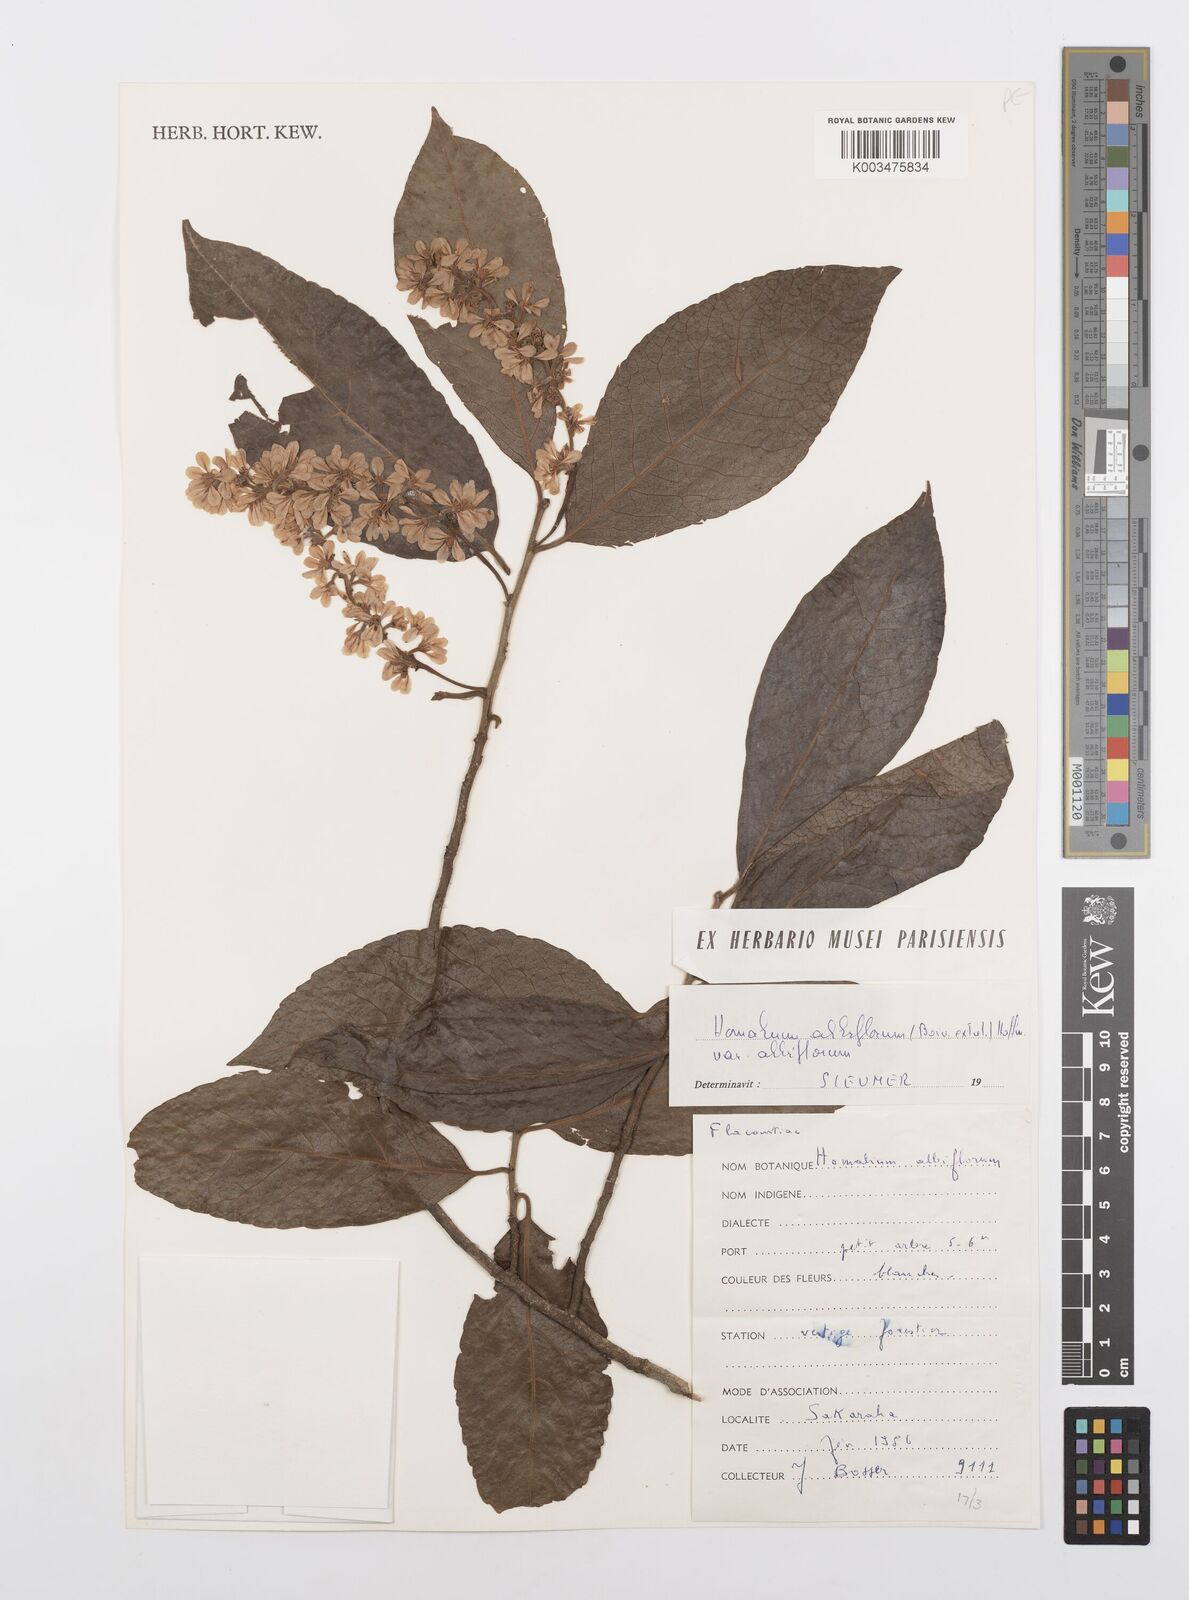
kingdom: Plantae
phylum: Tracheophyta
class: Magnoliopsida
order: Malpighiales
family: Salicaceae
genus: Homalium
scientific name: Homalium albiflorum
